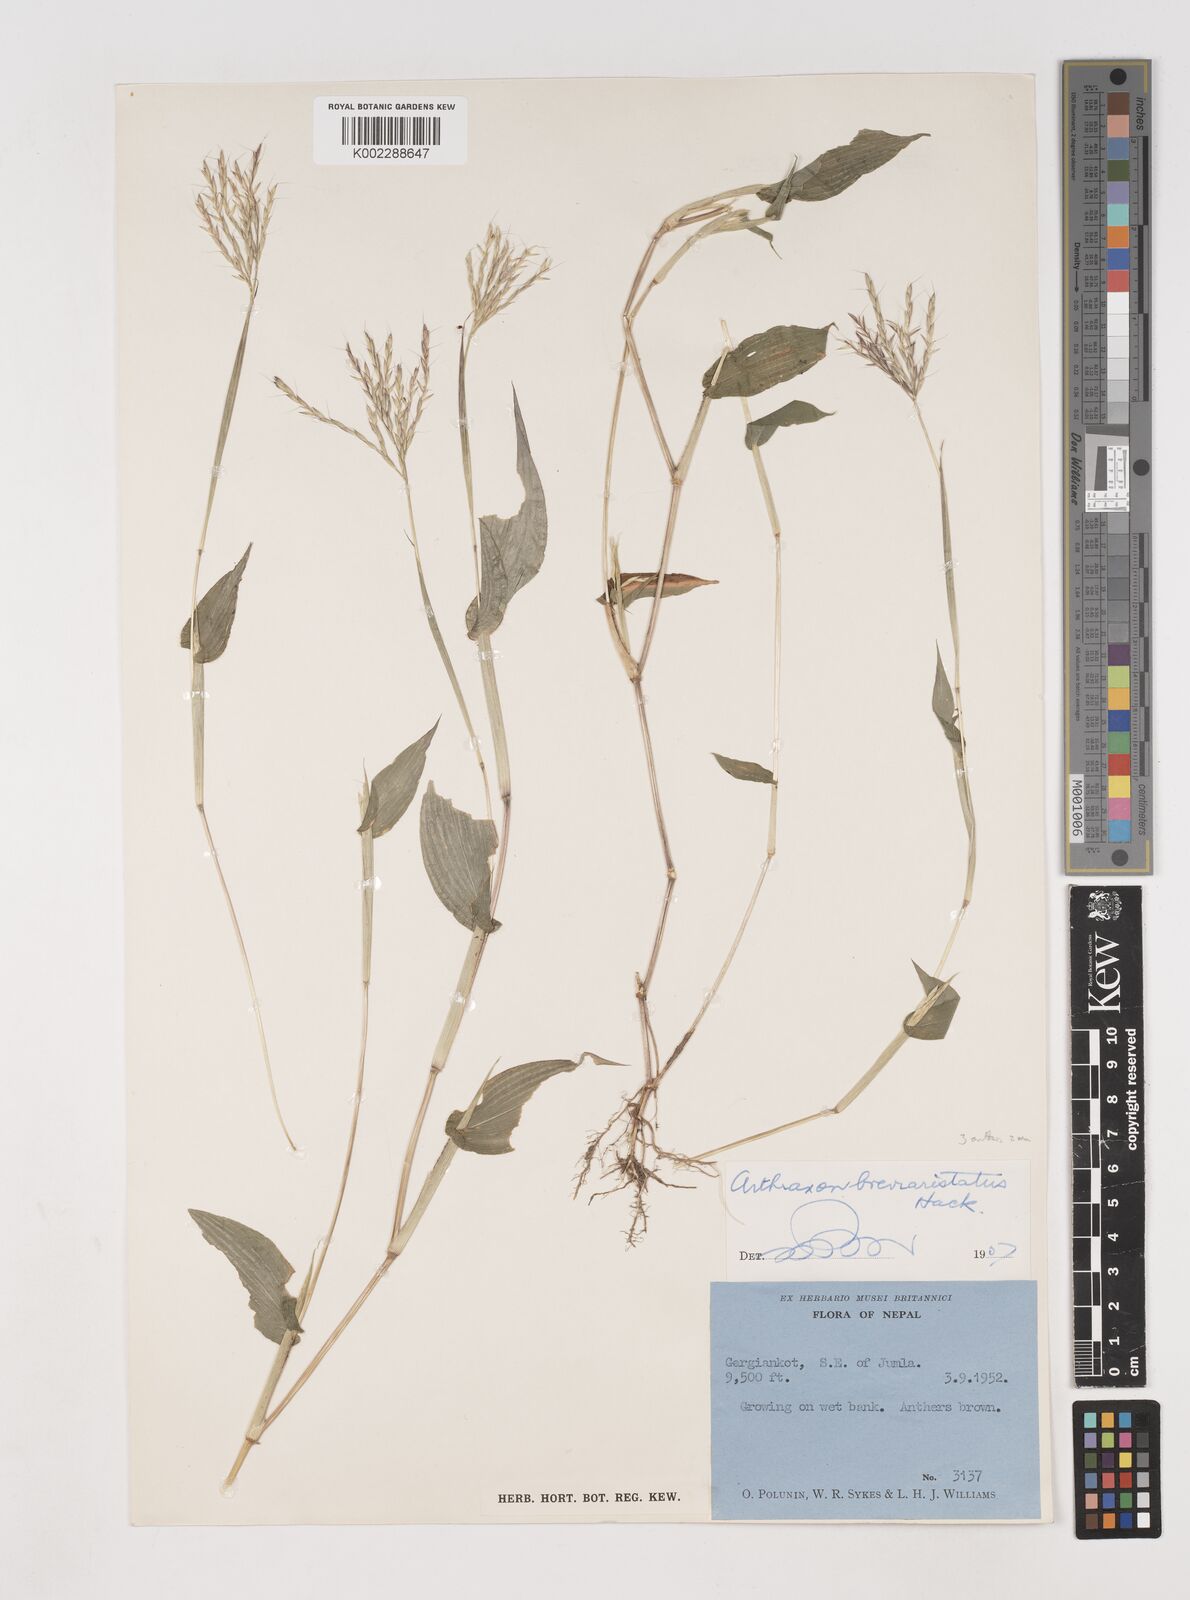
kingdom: Plantae
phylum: Tracheophyta
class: Liliopsida
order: Poales
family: Poaceae
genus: Arthraxon
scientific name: Arthraxon typicus
